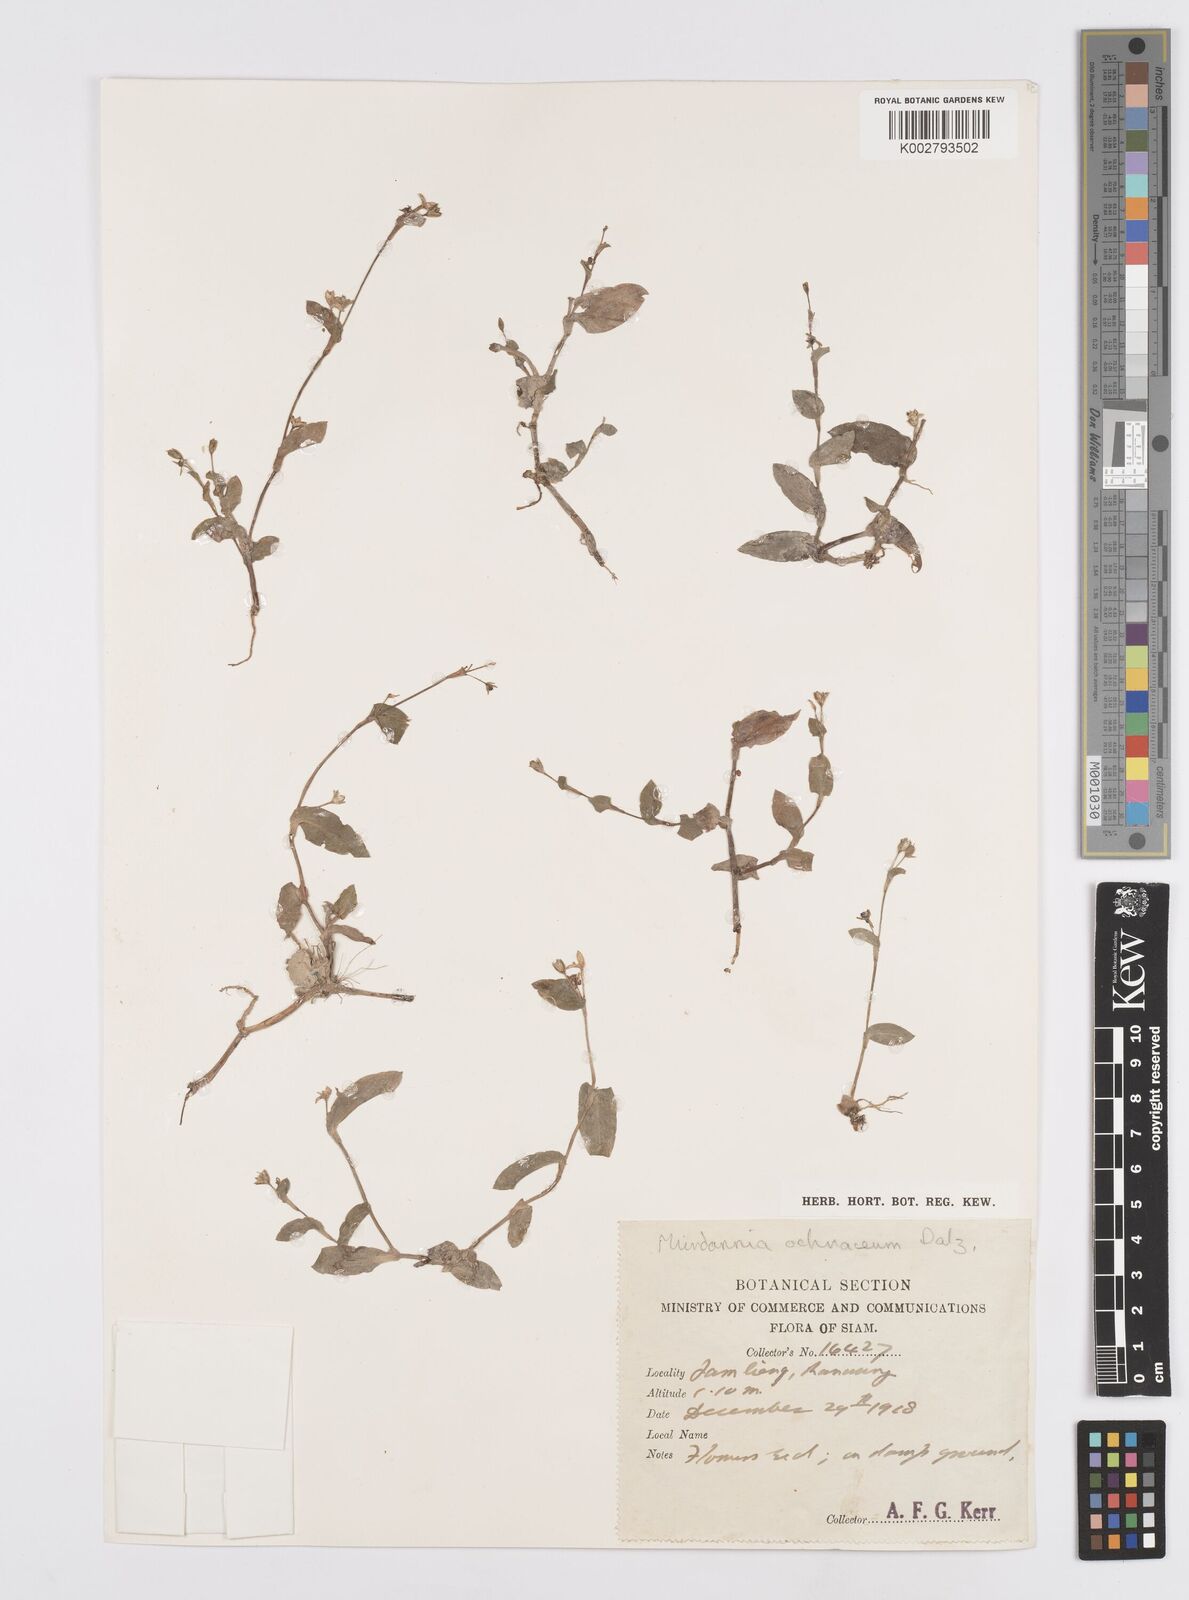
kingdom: Plantae
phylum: Tracheophyta
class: Liliopsida
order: Commelinales
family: Commelinaceae
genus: Murdannia
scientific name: Murdannia crocea
